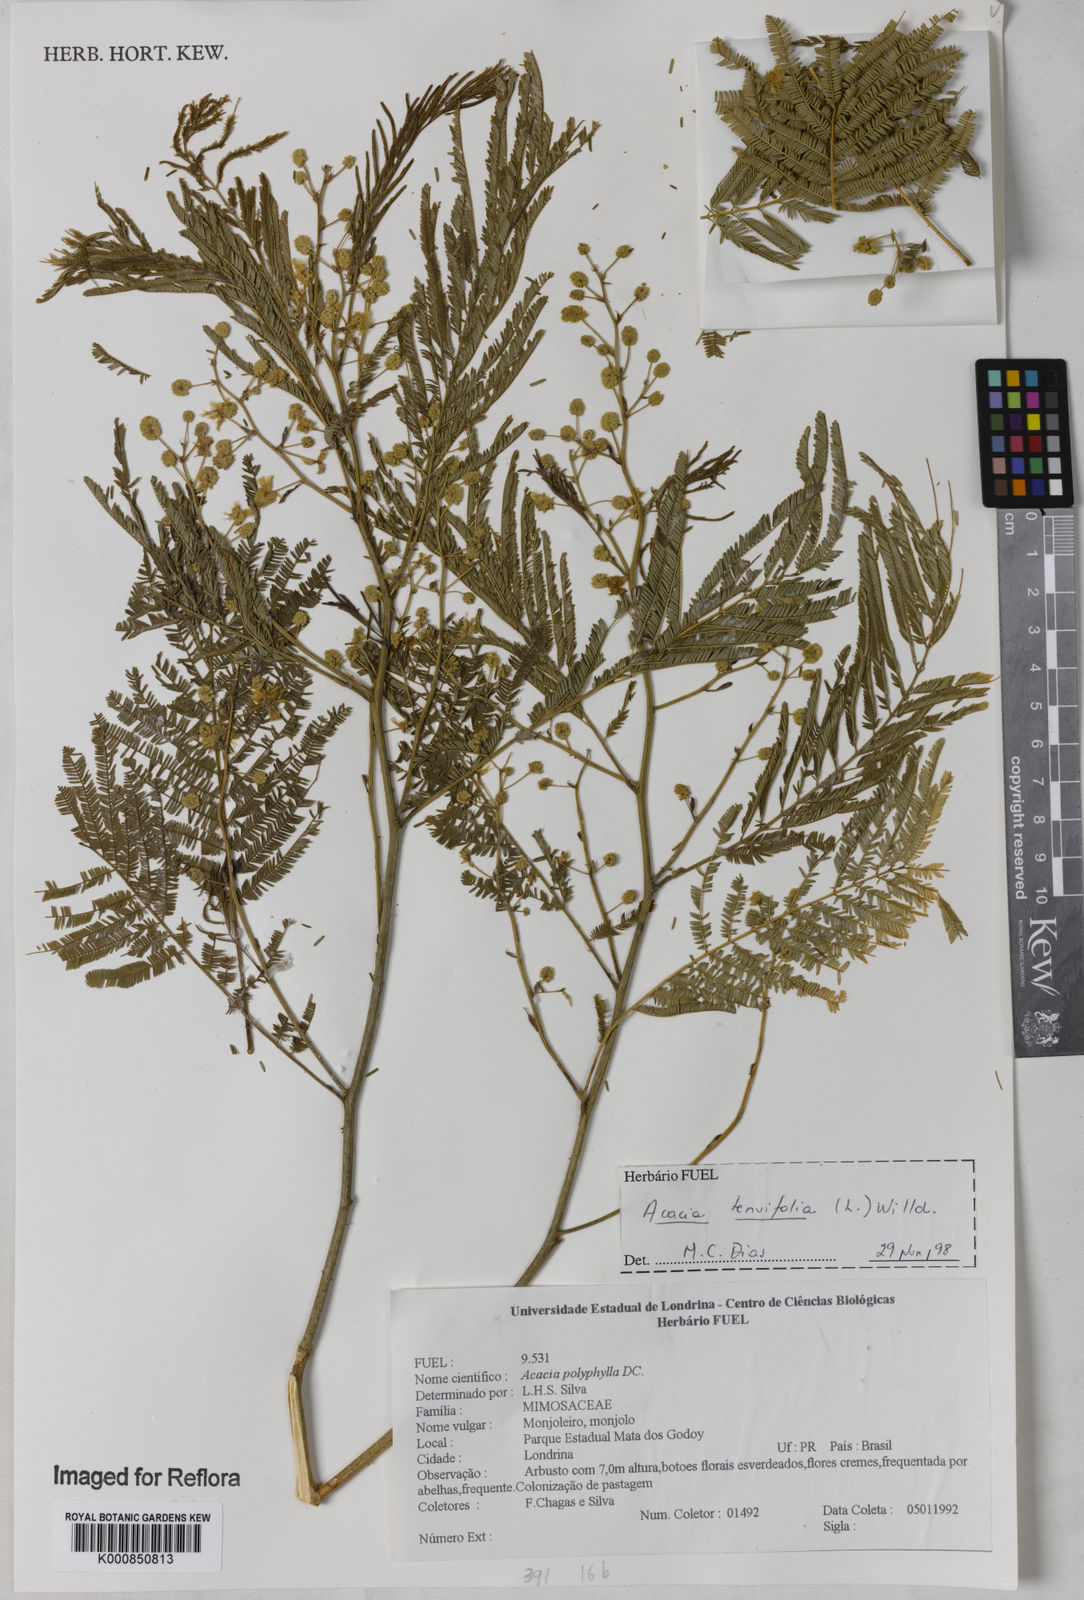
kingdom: Plantae
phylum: Tracheophyta
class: Magnoliopsida
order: Fabales
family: Fabaceae
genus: Senegalia
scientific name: Senegalia tenuifolia
